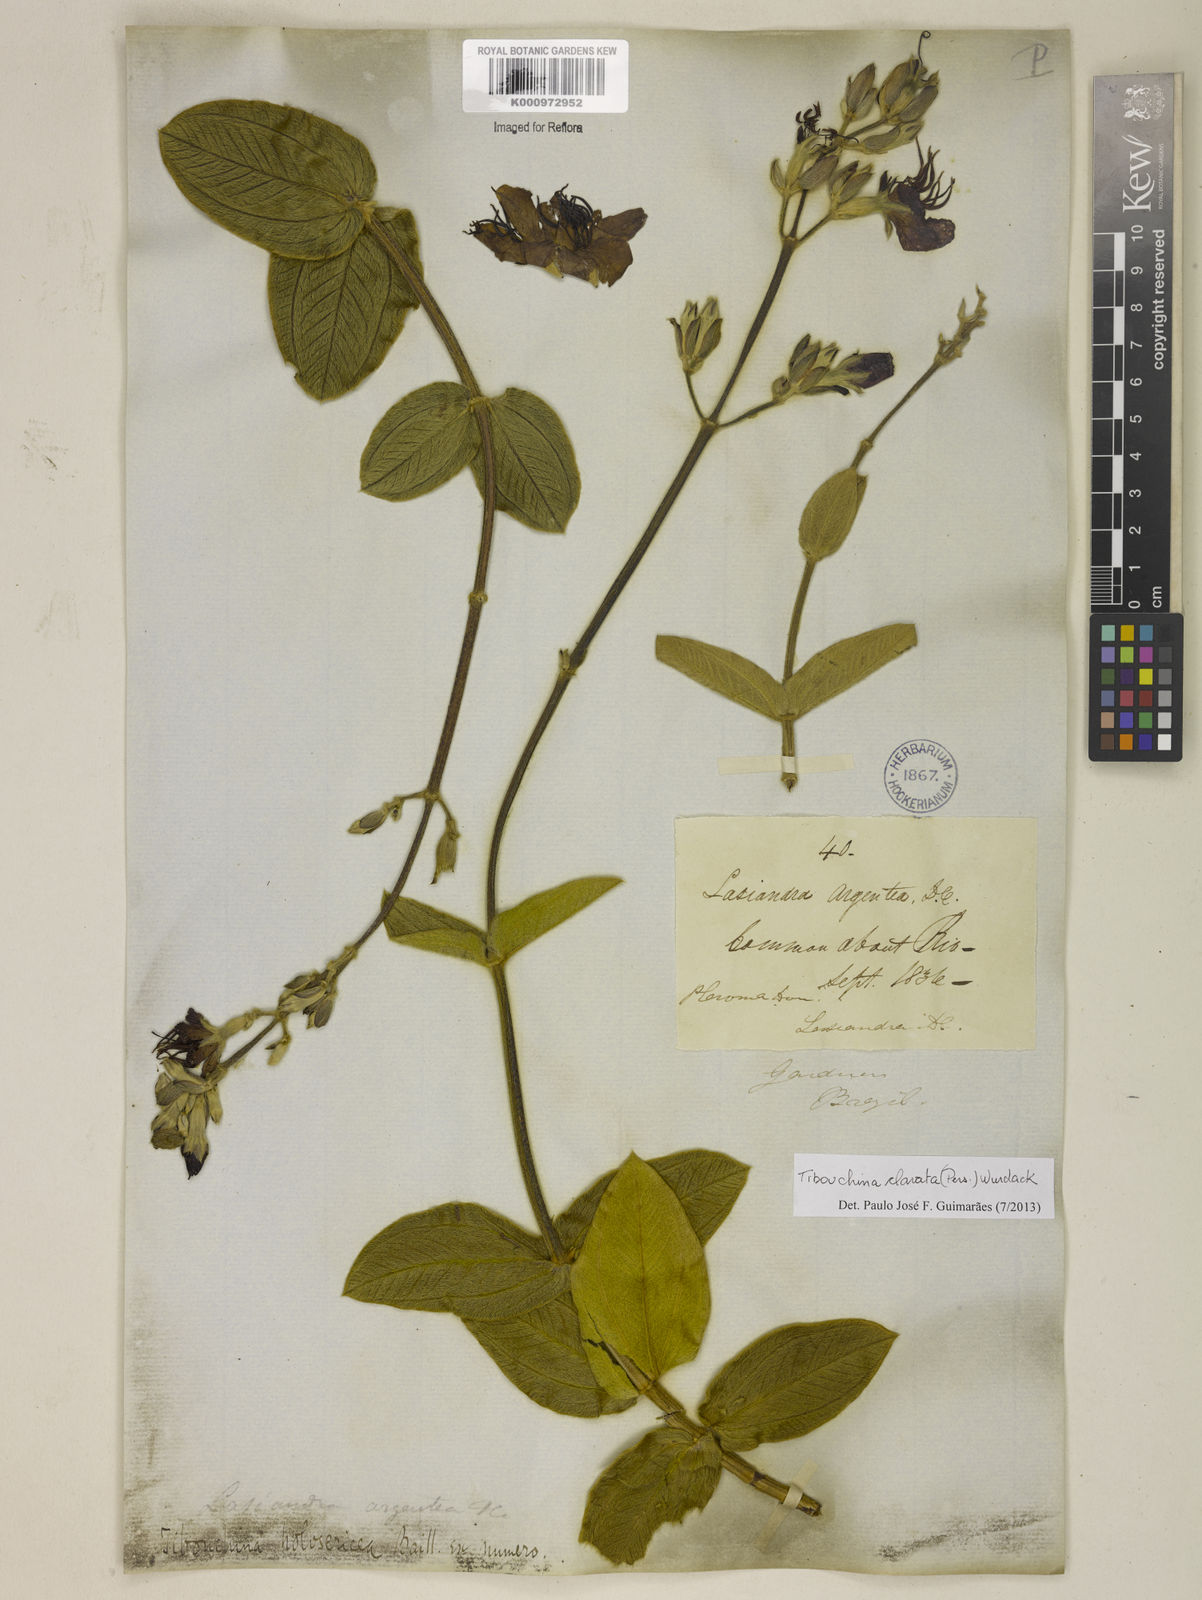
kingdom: Plantae
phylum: Tracheophyta
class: Magnoliopsida
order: Myrtales
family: Melastomataceae
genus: Pleroma
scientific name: Pleroma clavatum
